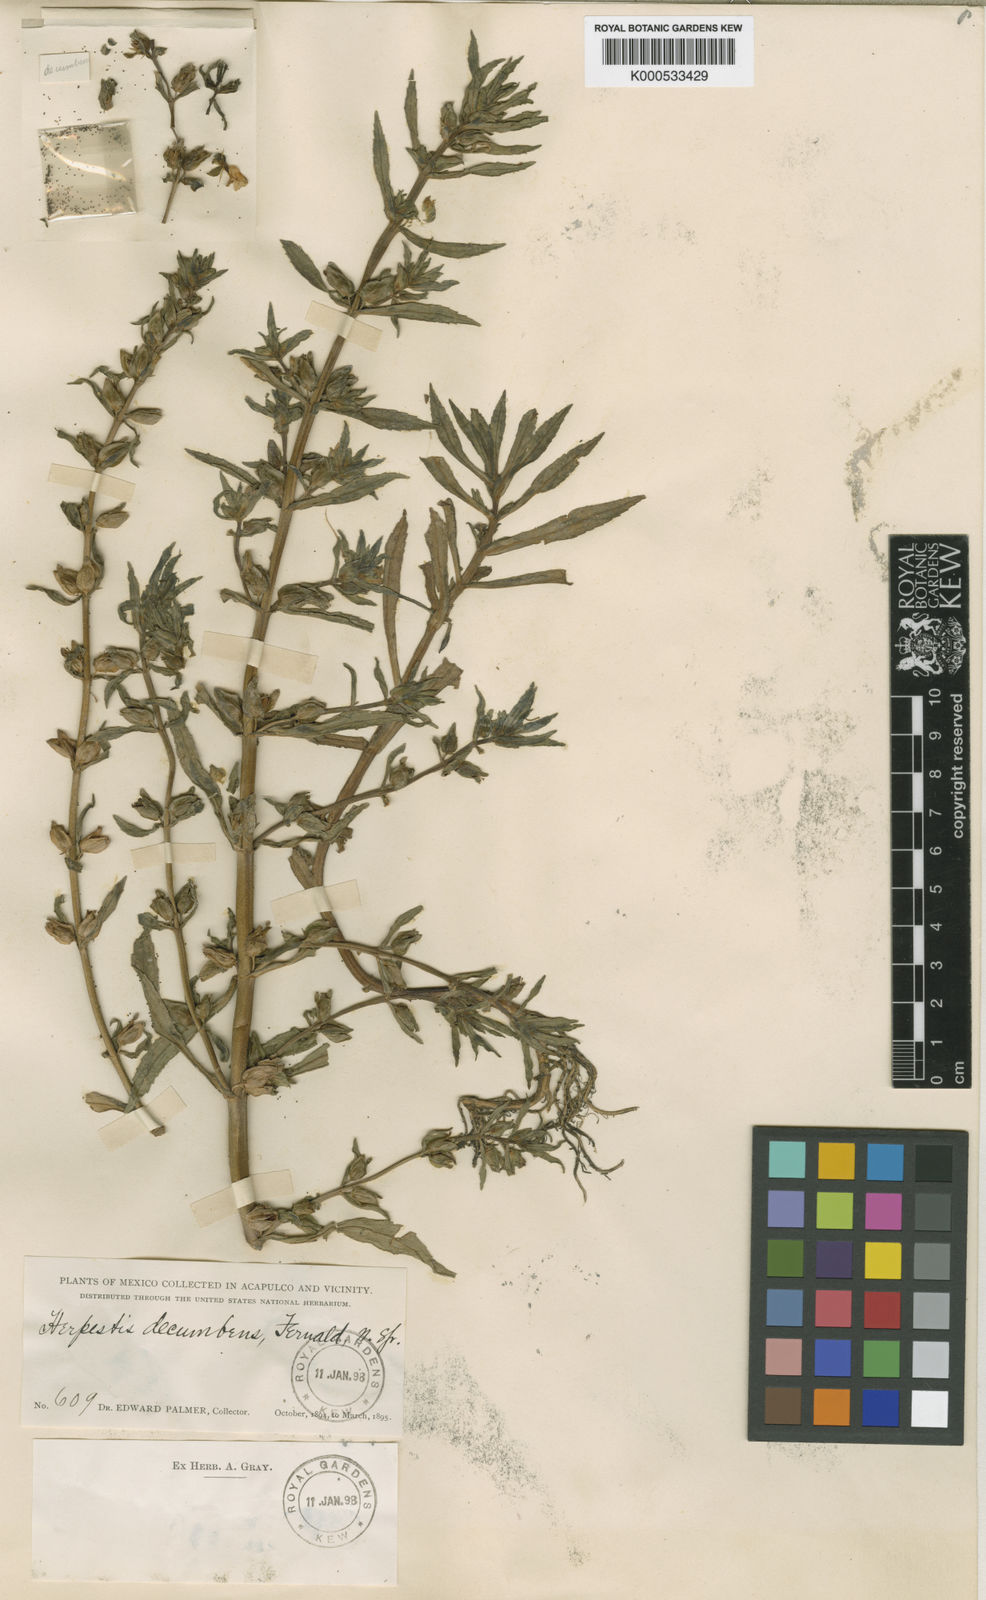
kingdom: Plantae
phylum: Tracheophyta
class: Magnoliopsida
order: Lamiales
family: Plantaginaceae
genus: Bacopa
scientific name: Bacopa decumbens
